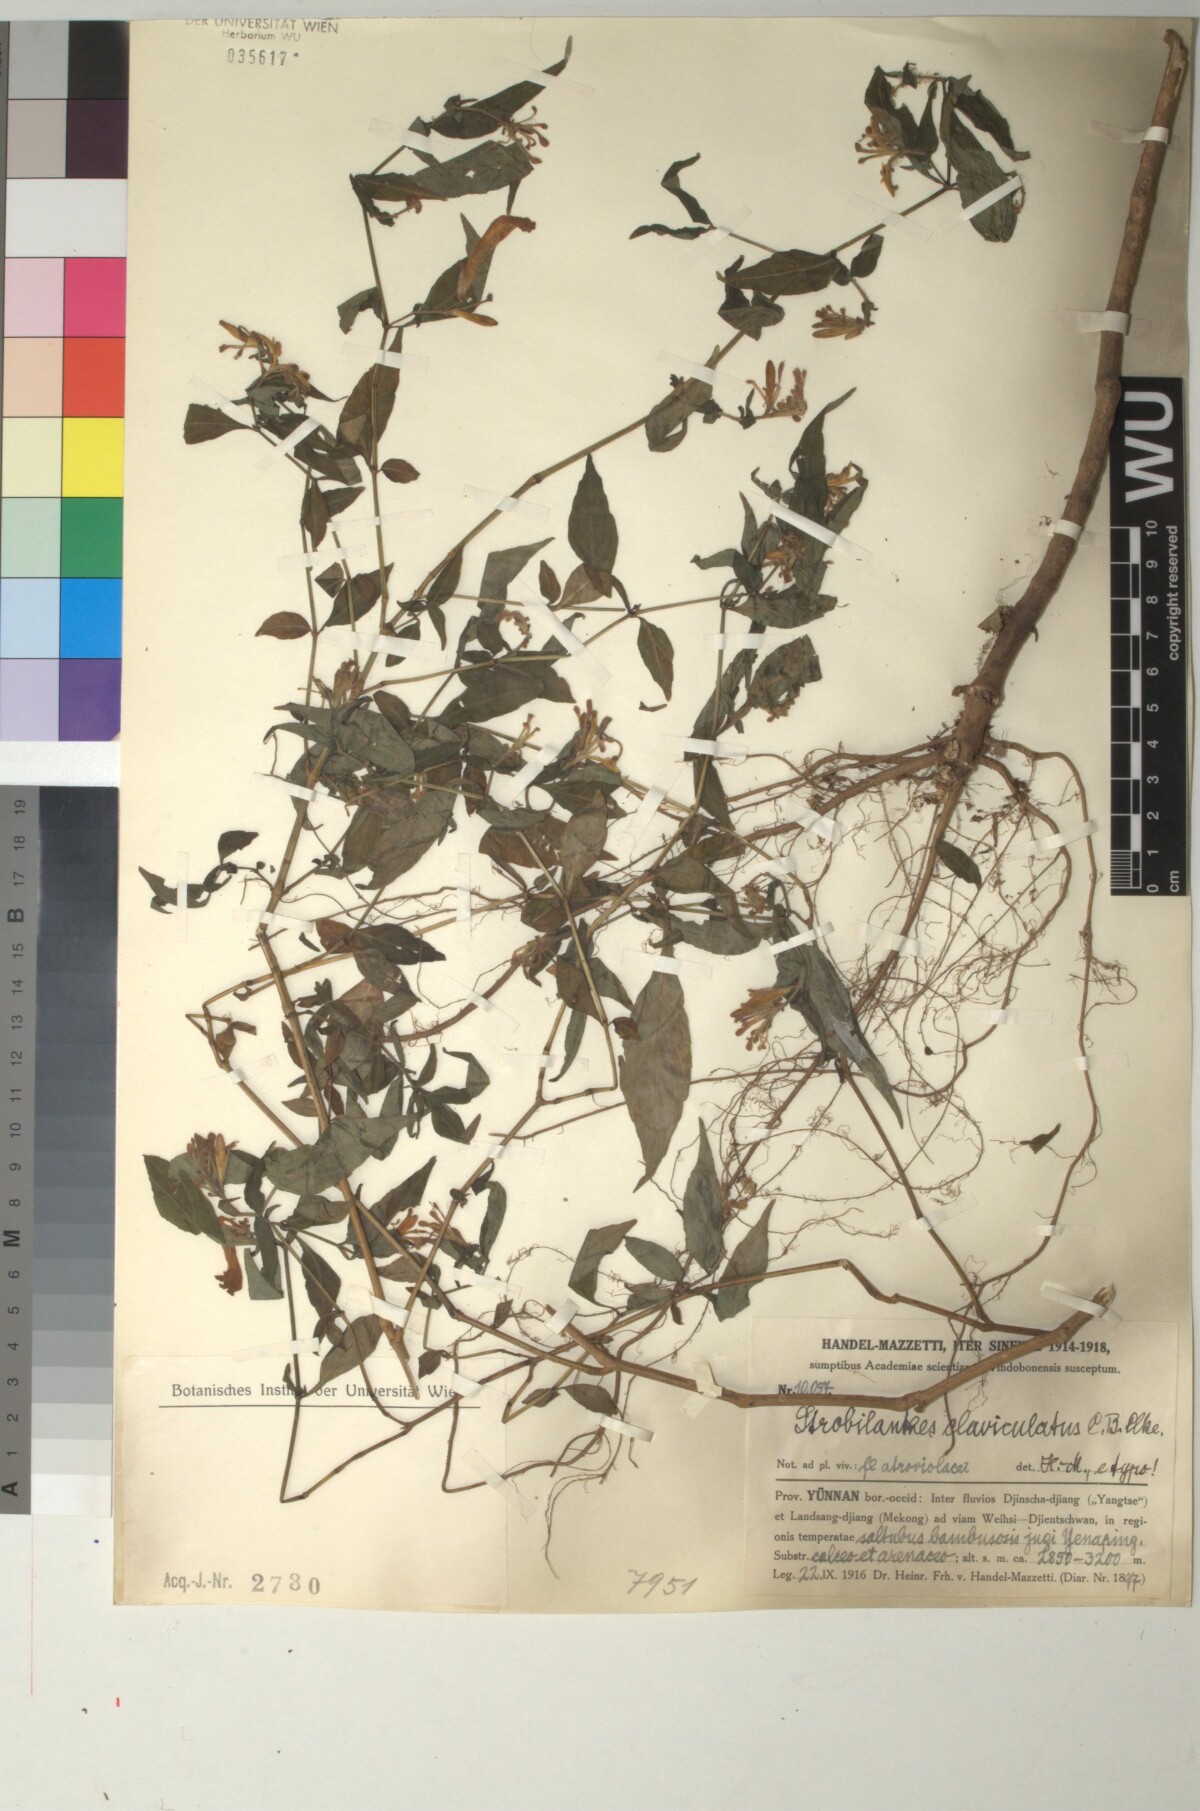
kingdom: Plantae
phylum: Tracheophyta
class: Magnoliopsida
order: Lamiales
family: Acanthaceae
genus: Strobilanthes
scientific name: Strobilanthes extensa
